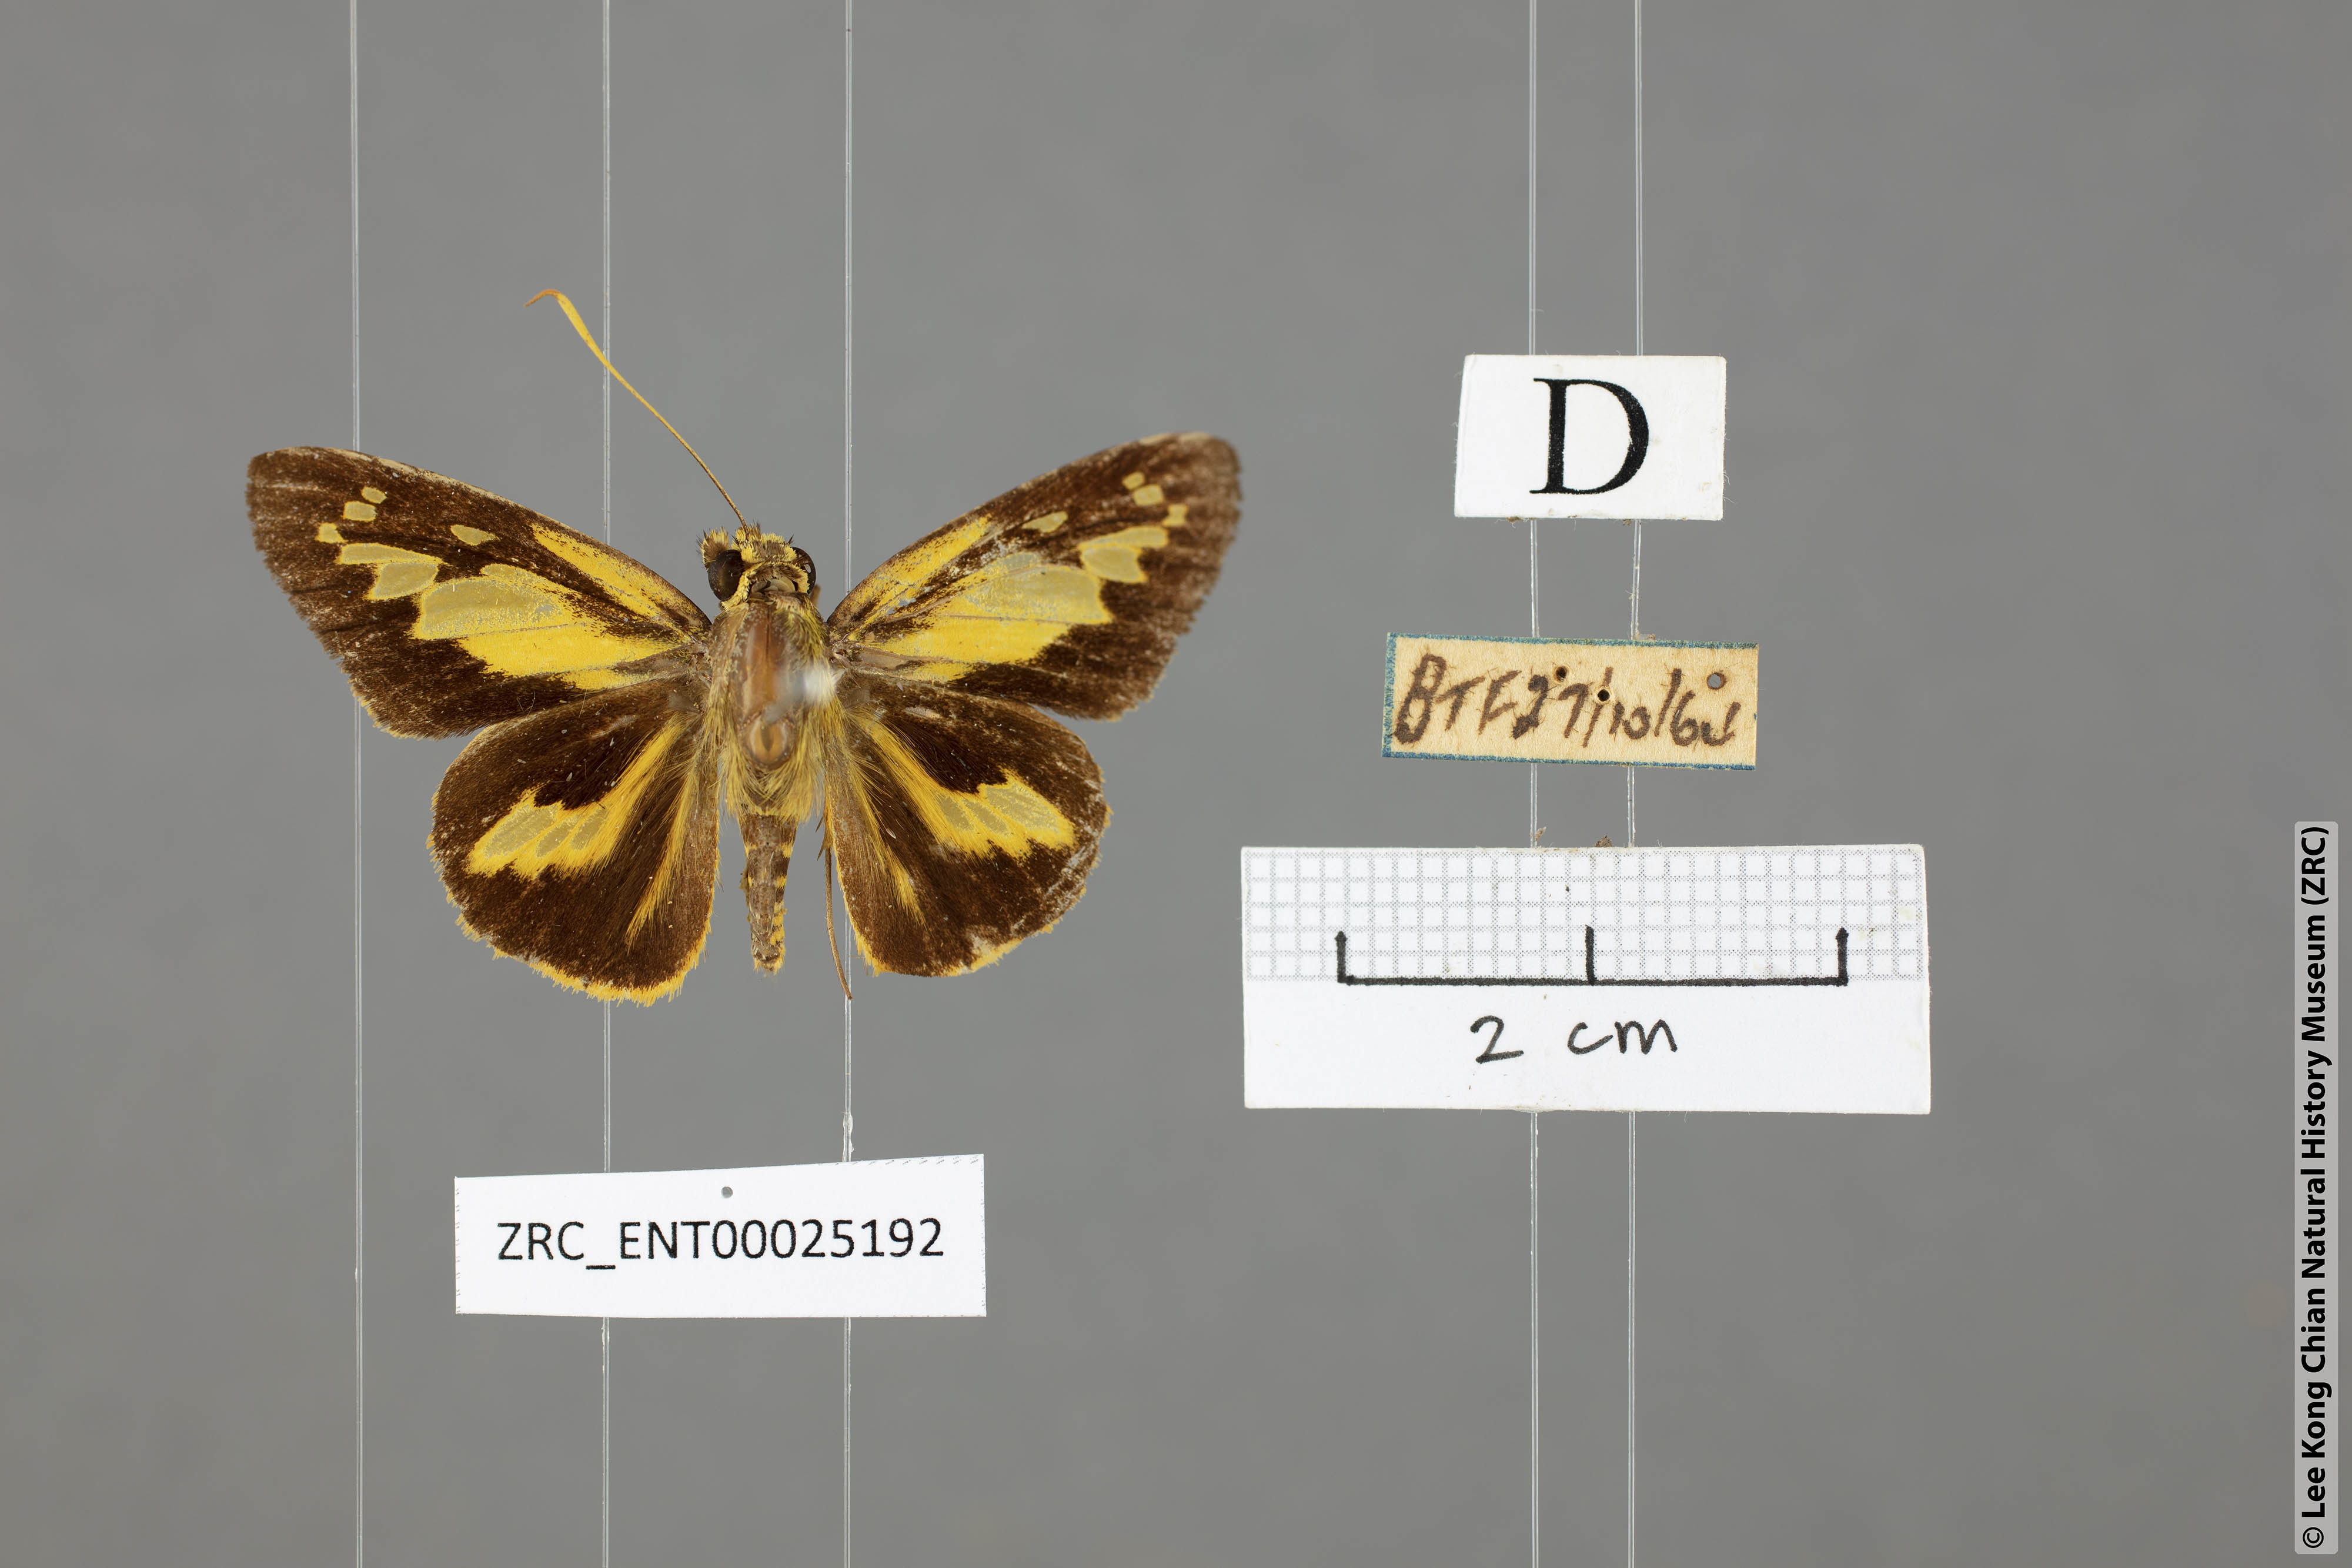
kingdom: Animalia
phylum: Arthropoda
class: Insecta
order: Lepidoptera
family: Hesperiidae
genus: Pyroneura
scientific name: Pyroneura
